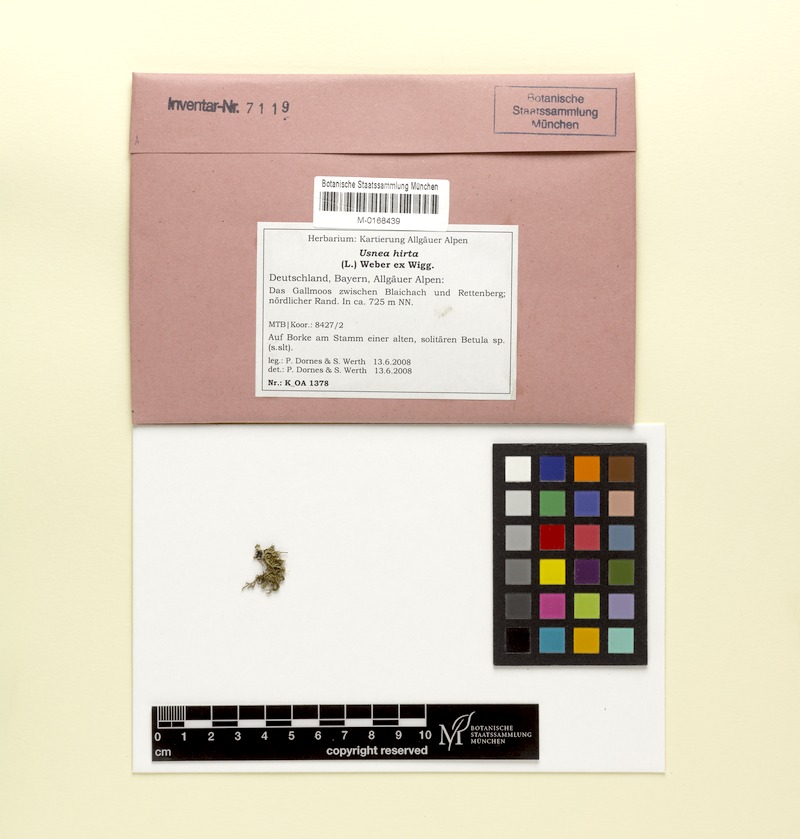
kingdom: Fungi
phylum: Ascomycota
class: Lecanoromycetes
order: Lecanorales
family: Parmeliaceae
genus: Usnea
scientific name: Usnea hirta
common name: Bristly beard lichen
